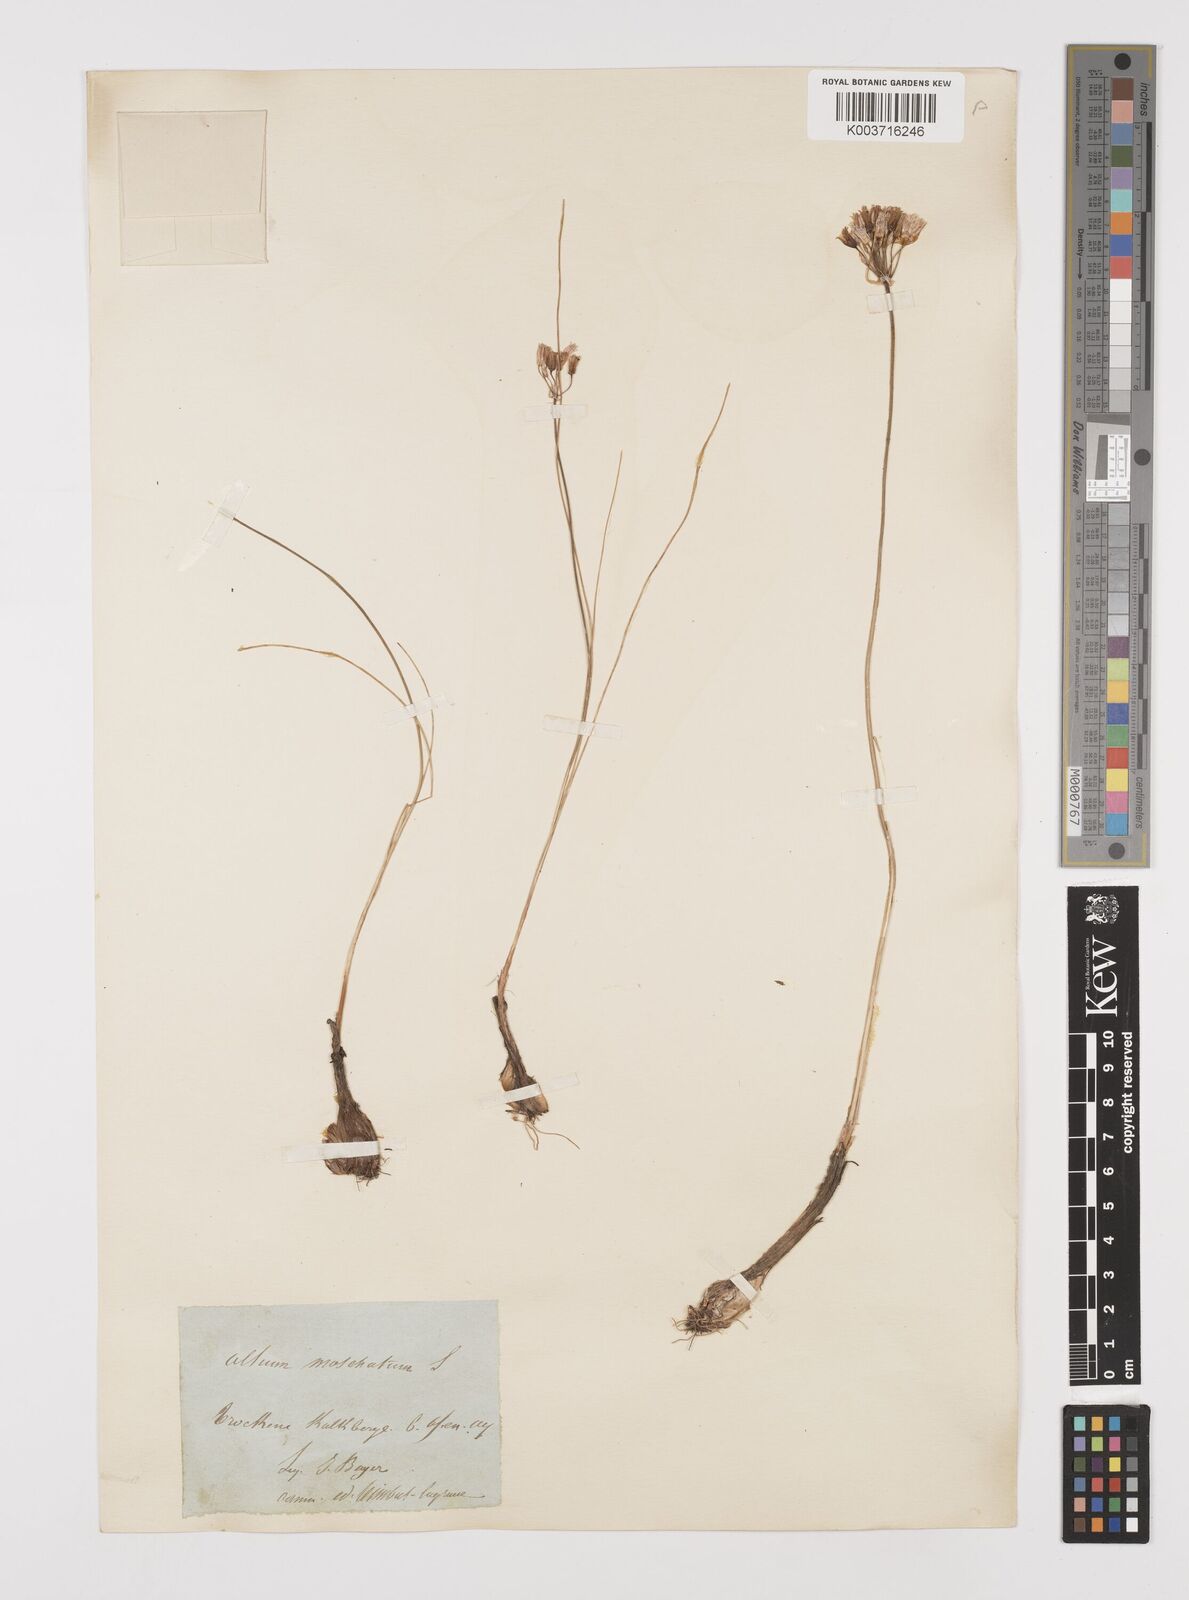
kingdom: Plantae
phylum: Tracheophyta
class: Liliopsida
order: Asparagales
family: Amaryllidaceae
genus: Allium
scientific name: Allium moschatum
